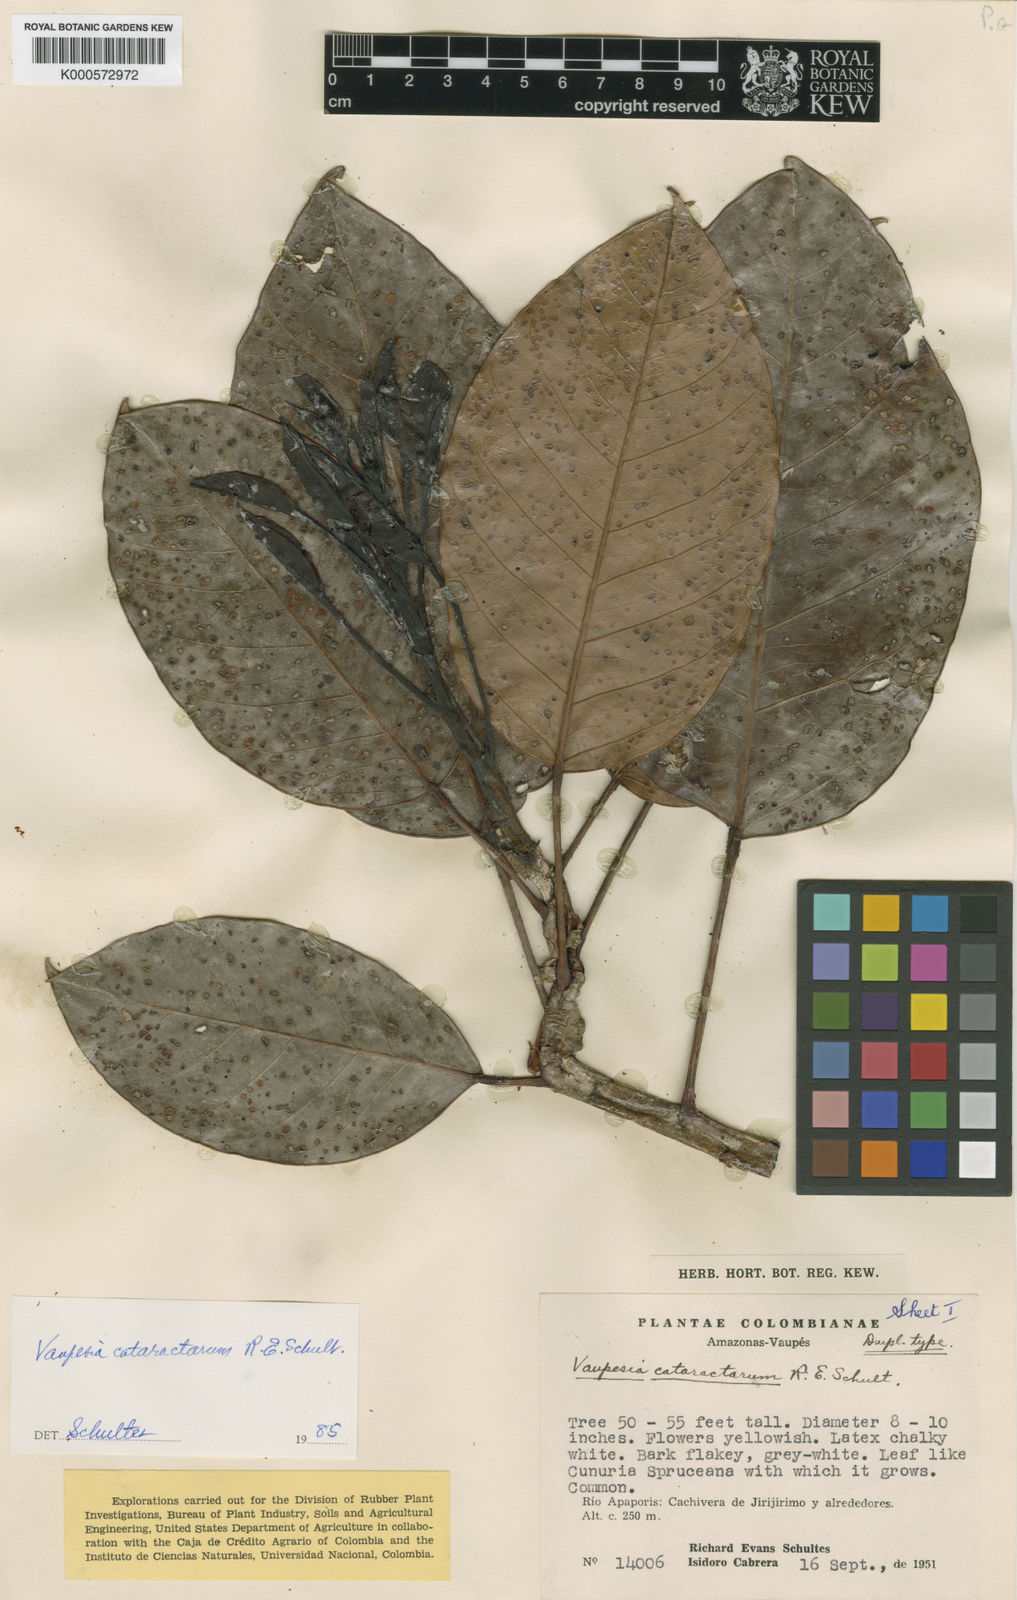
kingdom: Plantae
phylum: Tracheophyta
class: Magnoliopsida
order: Malpighiales
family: Euphorbiaceae
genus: Vaupesia
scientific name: Vaupesia cataractarum
